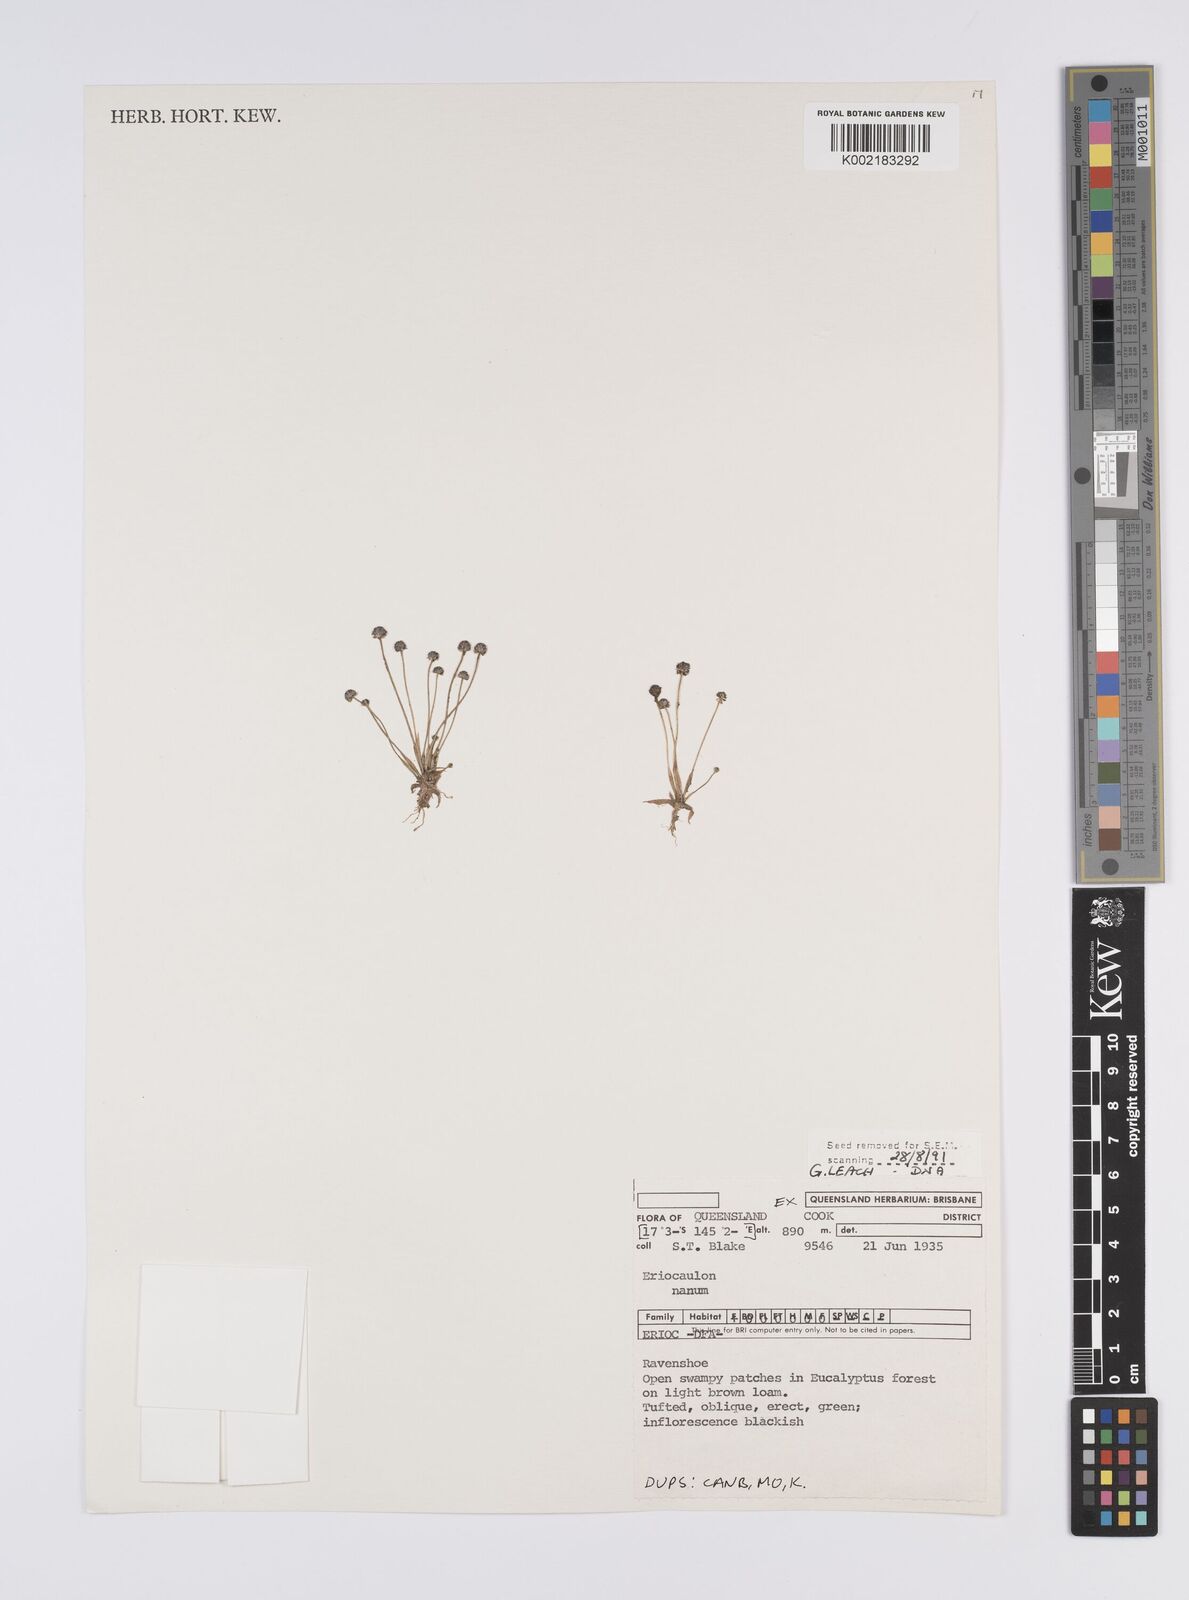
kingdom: Plantae
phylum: Tracheophyta
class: Liliopsida
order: Poales
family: Eriocaulaceae
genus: Eriocaulon
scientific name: Eriocaulon
